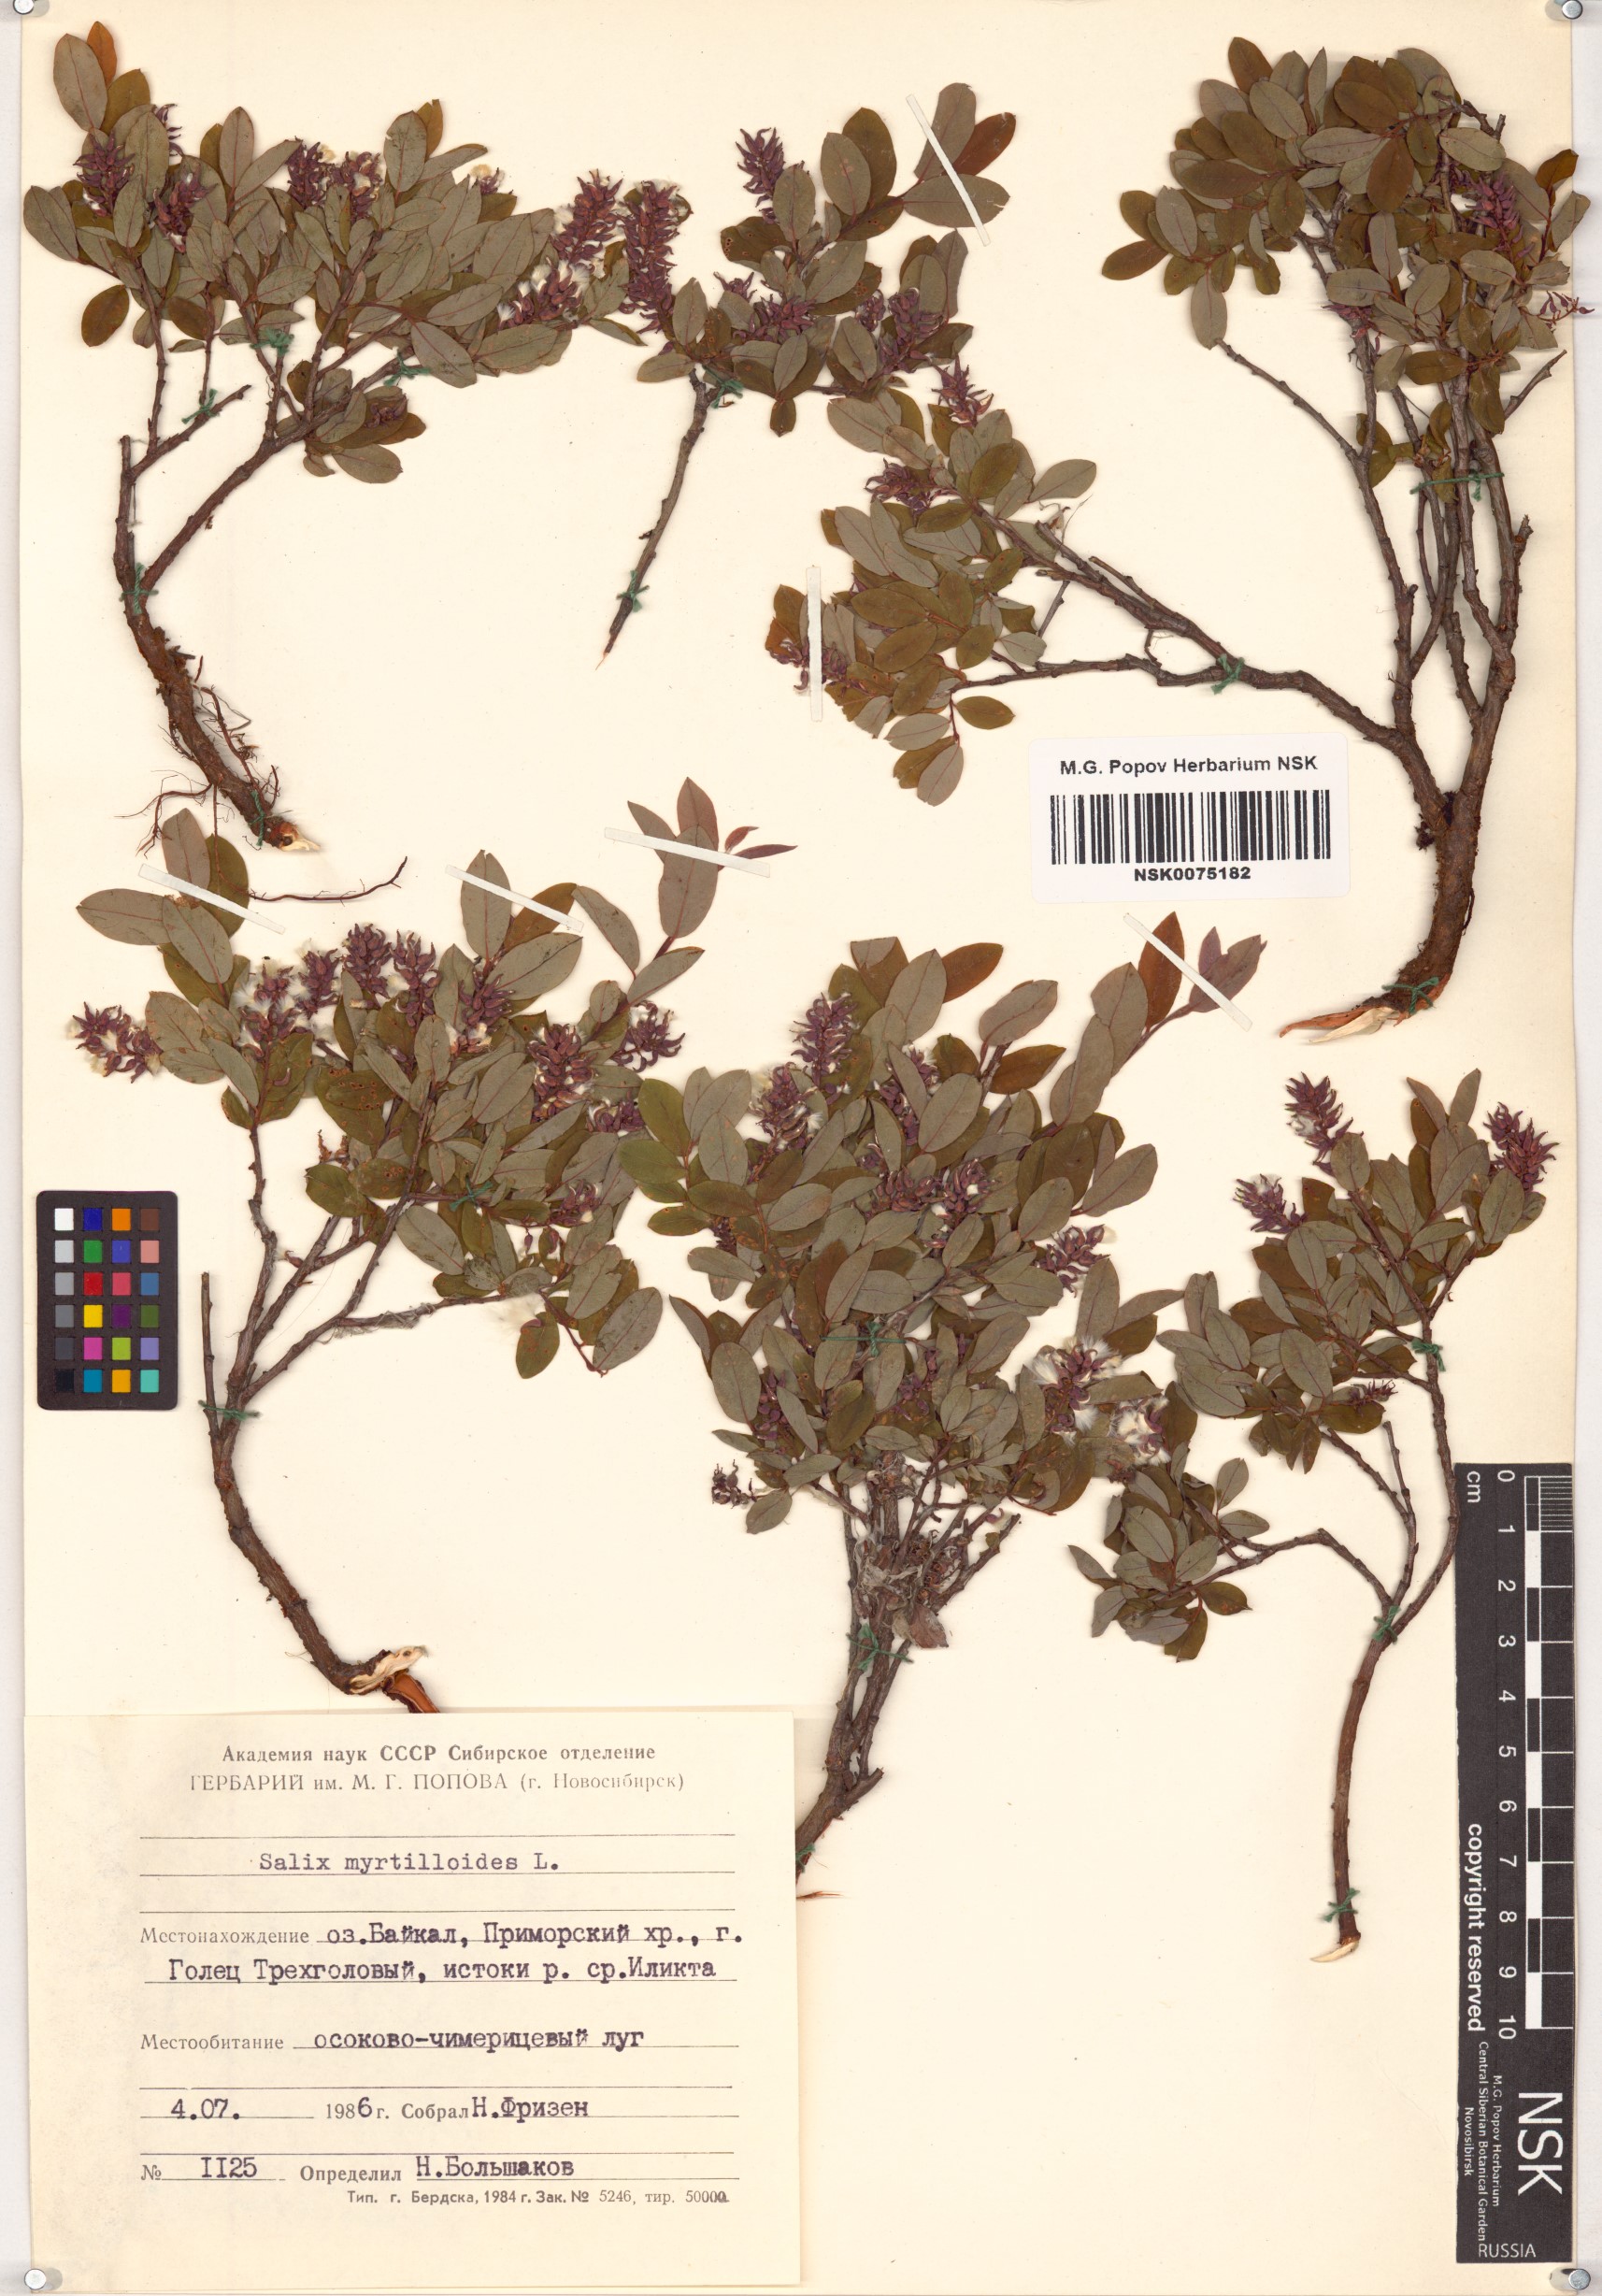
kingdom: Plantae
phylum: Tracheophyta
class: Magnoliopsida
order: Malpighiales
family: Salicaceae
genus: Salix
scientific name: Salix myrtilloides
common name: Myrtle-leaved willow
